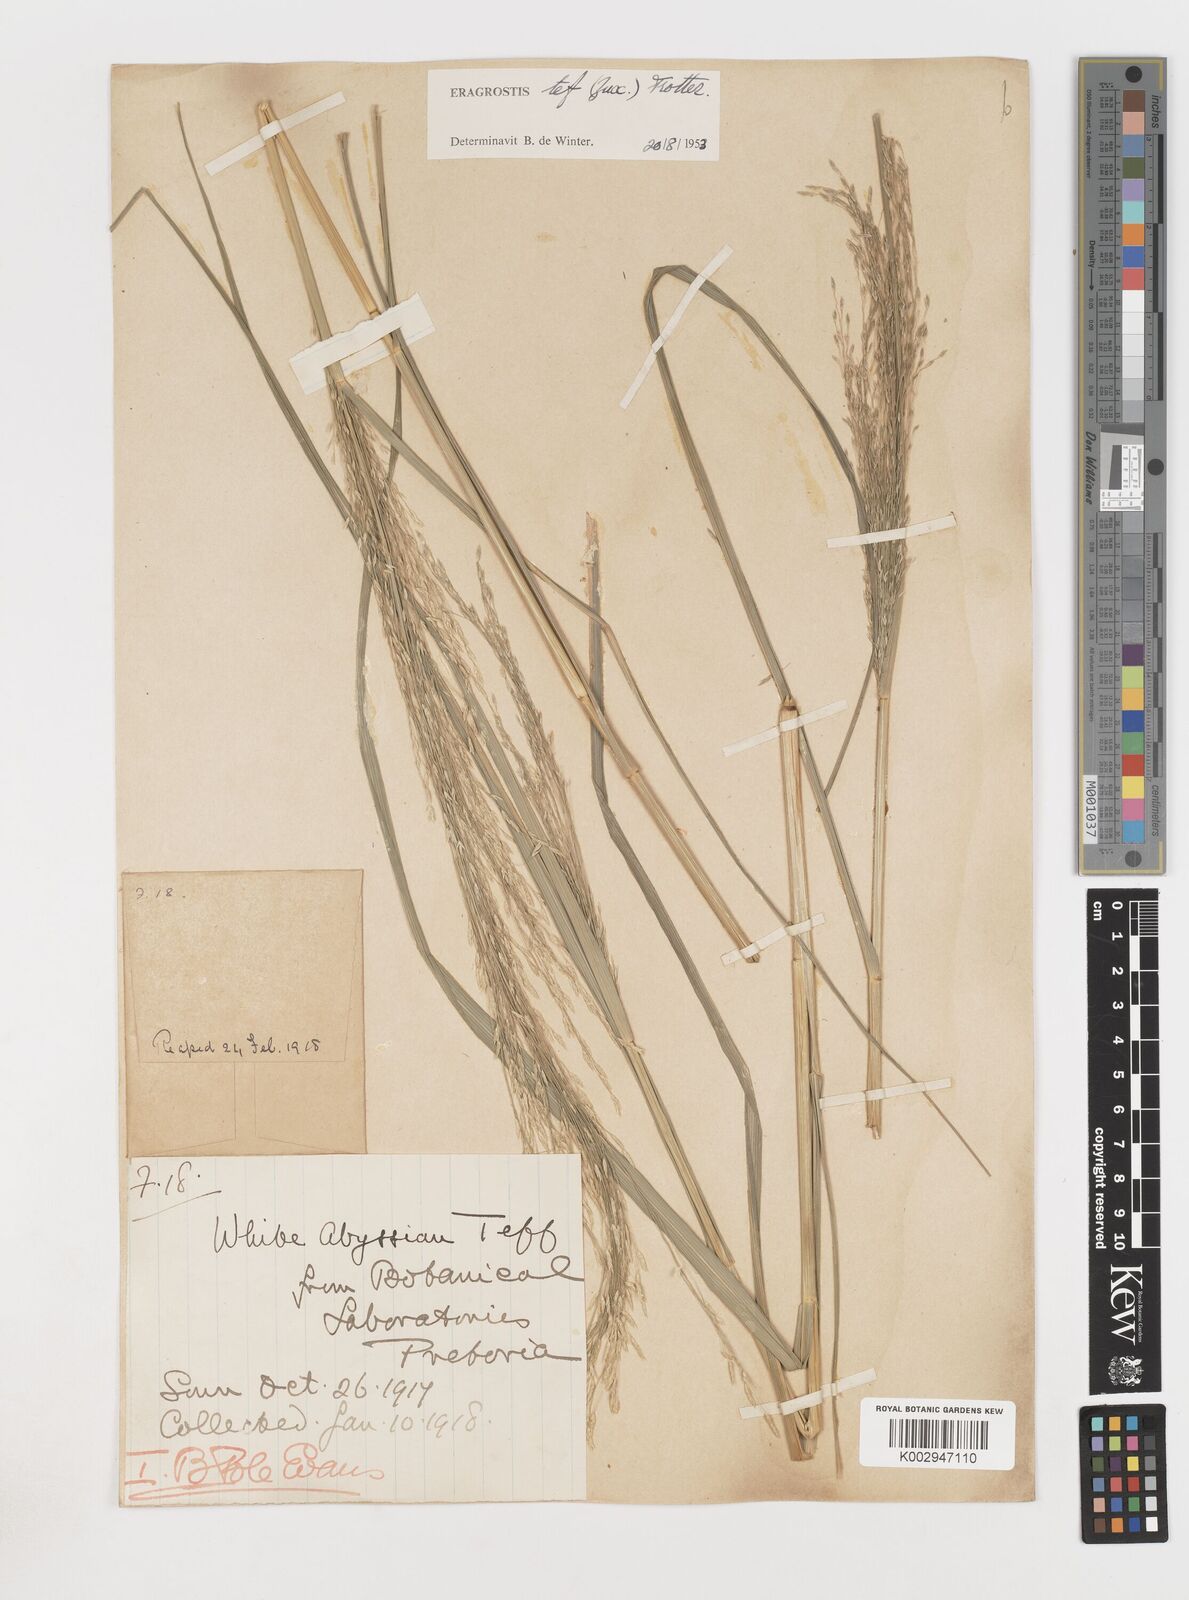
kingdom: Plantae
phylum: Tracheophyta
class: Liliopsida
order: Poales
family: Poaceae
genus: Eragrostis
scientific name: Eragrostis tef
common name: Teff
